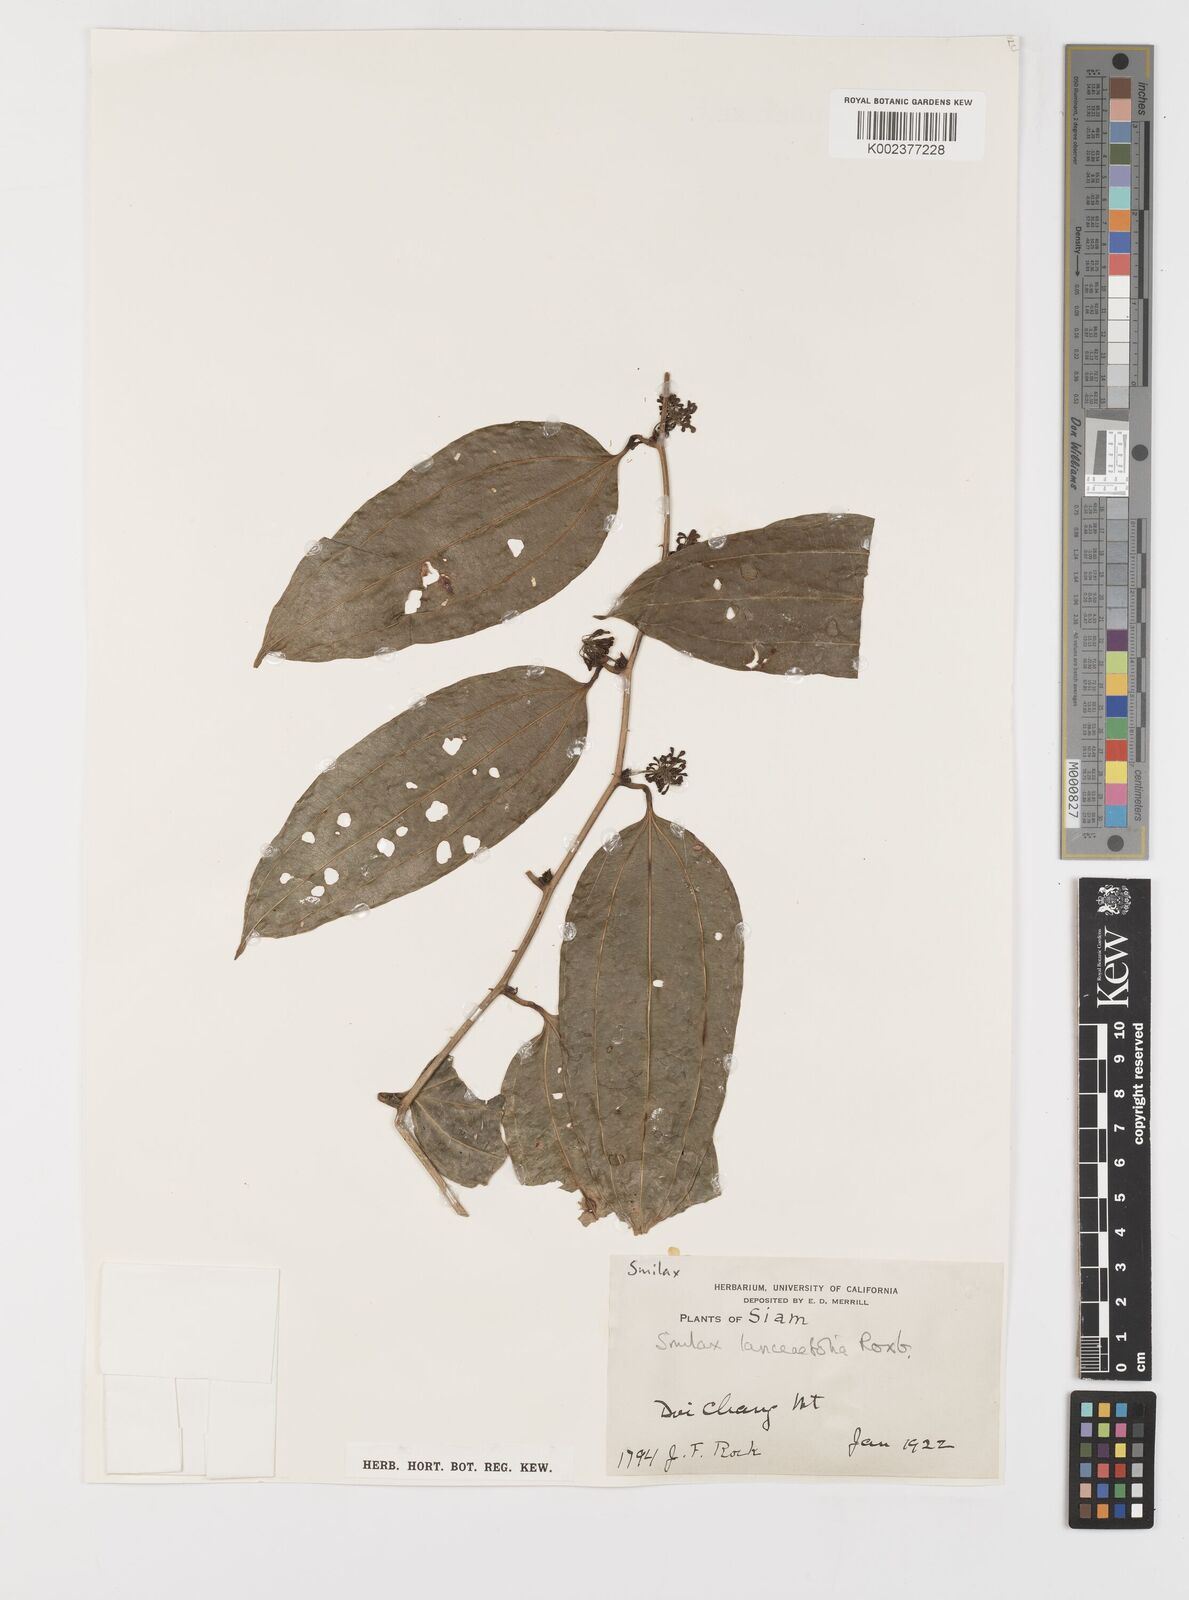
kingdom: Plantae
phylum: Tracheophyta
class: Liliopsida
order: Liliales
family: Smilacaceae
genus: Smilax
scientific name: Smilax lanceifolia
